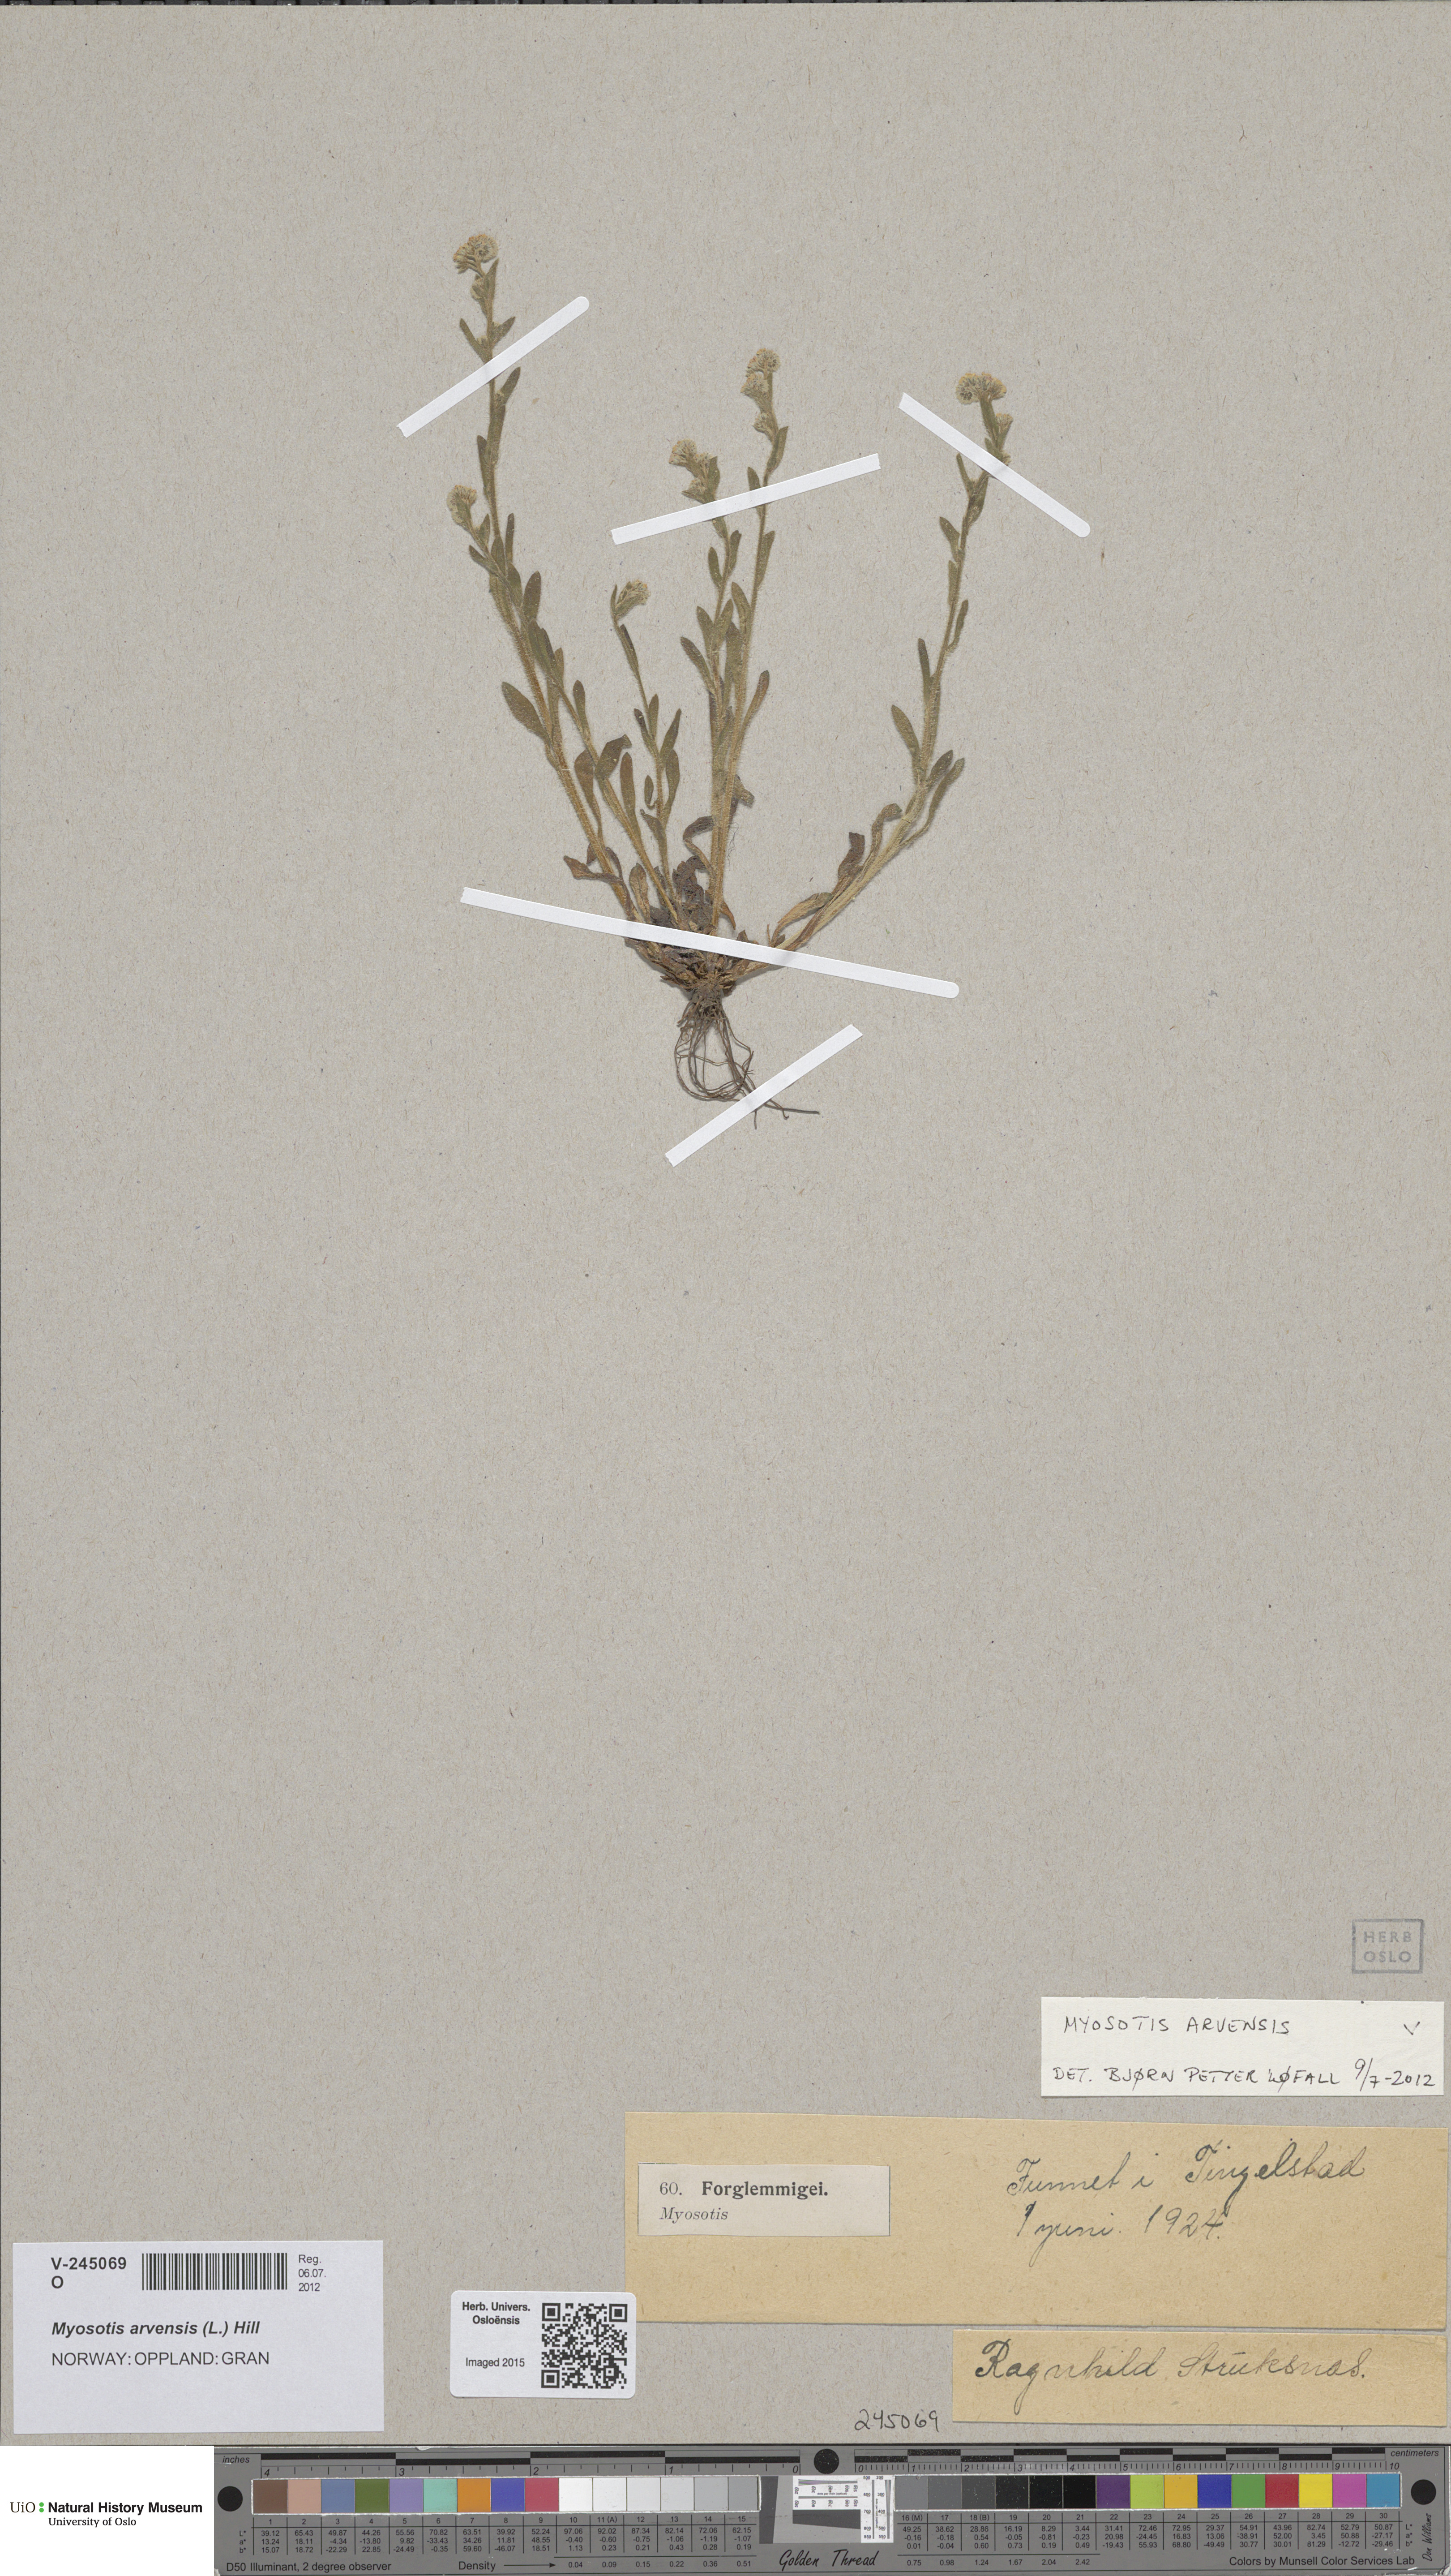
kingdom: Plantae
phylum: Tracheophyta
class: Magnoliopsida
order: Boraginales
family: Boraginaceae
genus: Myosotis
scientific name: Myosotis arvensis
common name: Field forget-me-not
